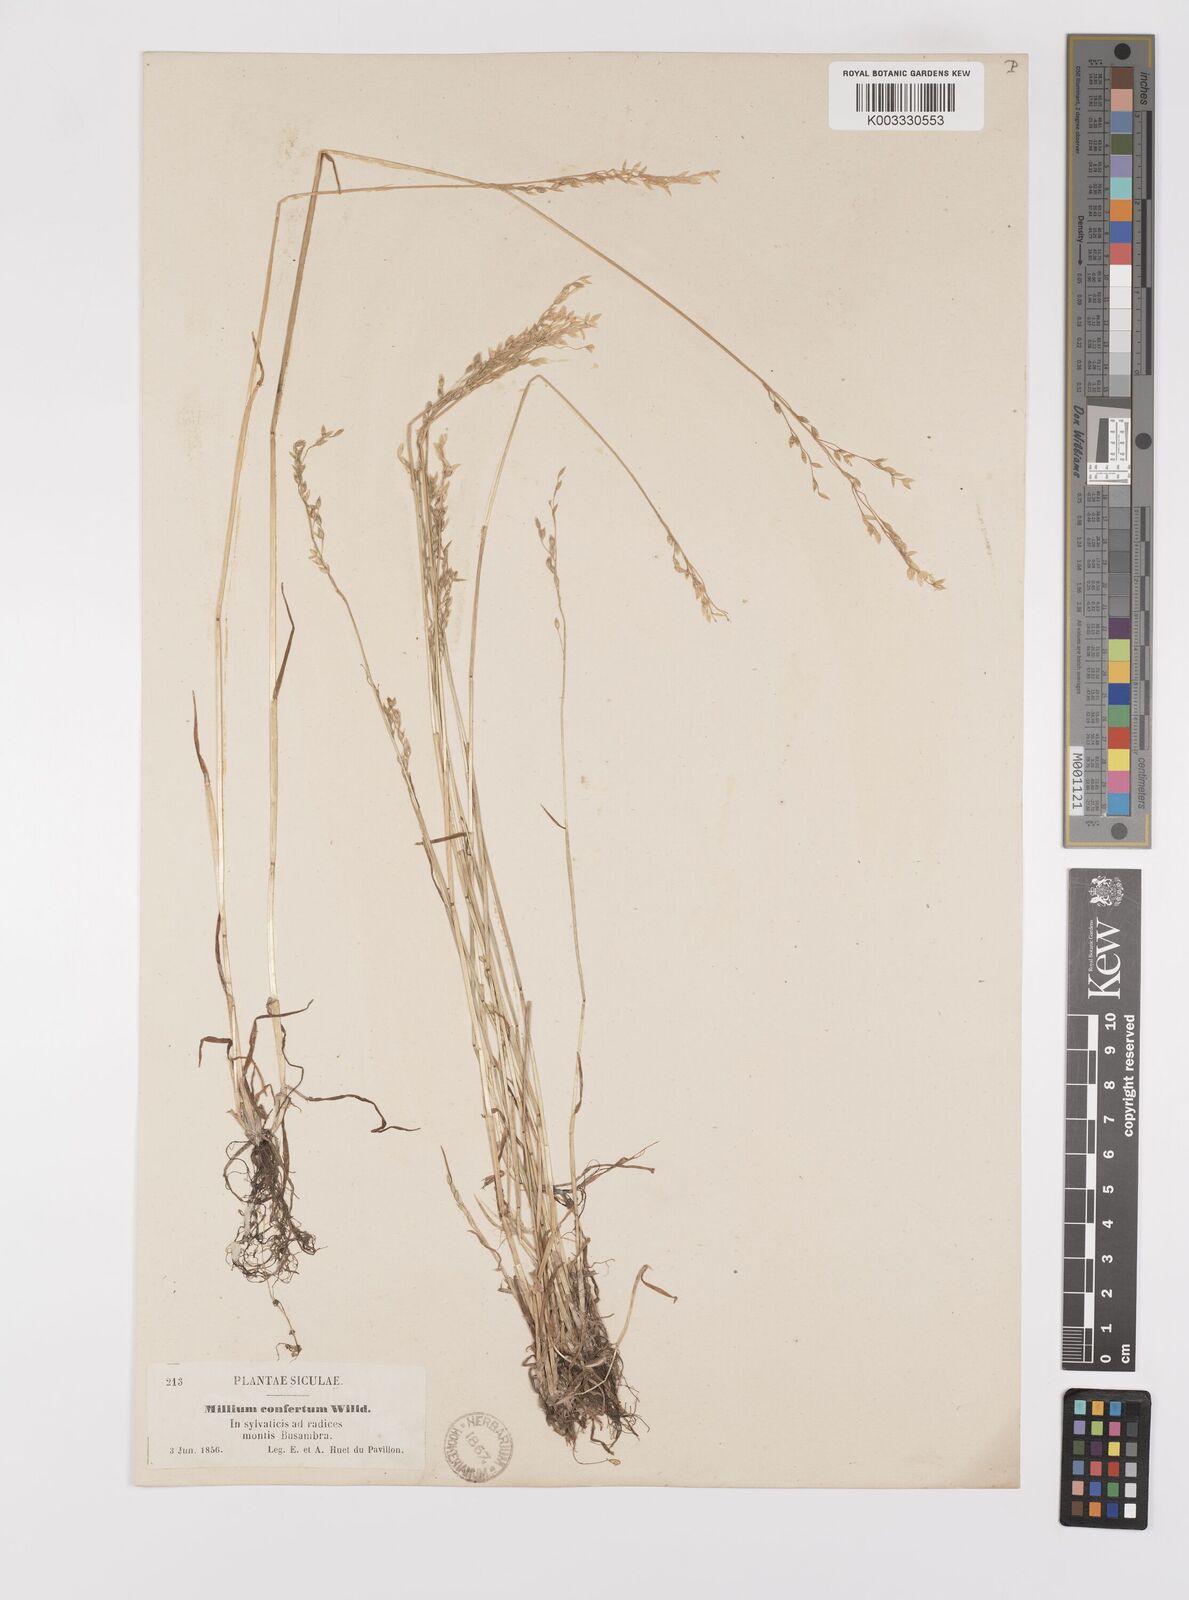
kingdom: Plantae
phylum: Tracheophyta
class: Liliopsida
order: Poales
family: Poaceae
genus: Milium
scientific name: Milium vernale
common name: Early millet
